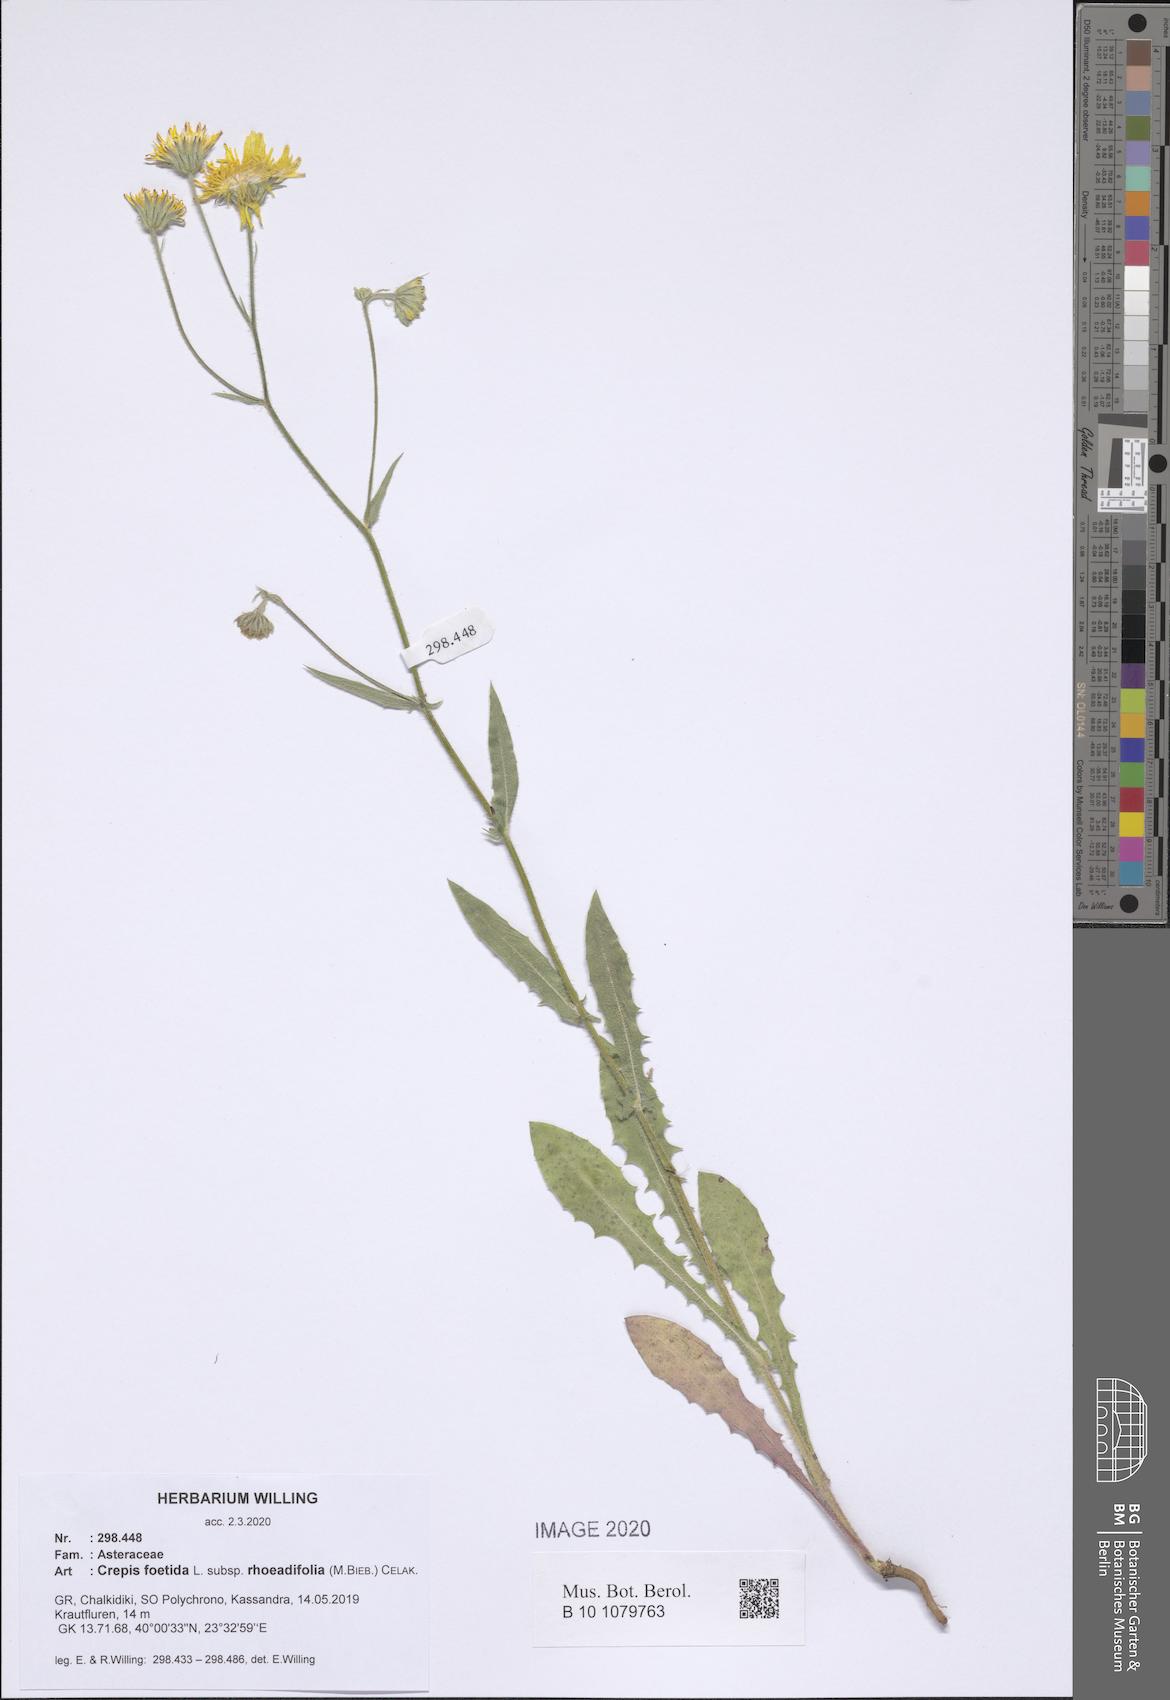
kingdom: Plantae
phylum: Tracheophyta
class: Magnoliopsida
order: Asterales
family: Asteraceae
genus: Crepis
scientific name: Crepis foetida
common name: Stinking hawk's-beard
